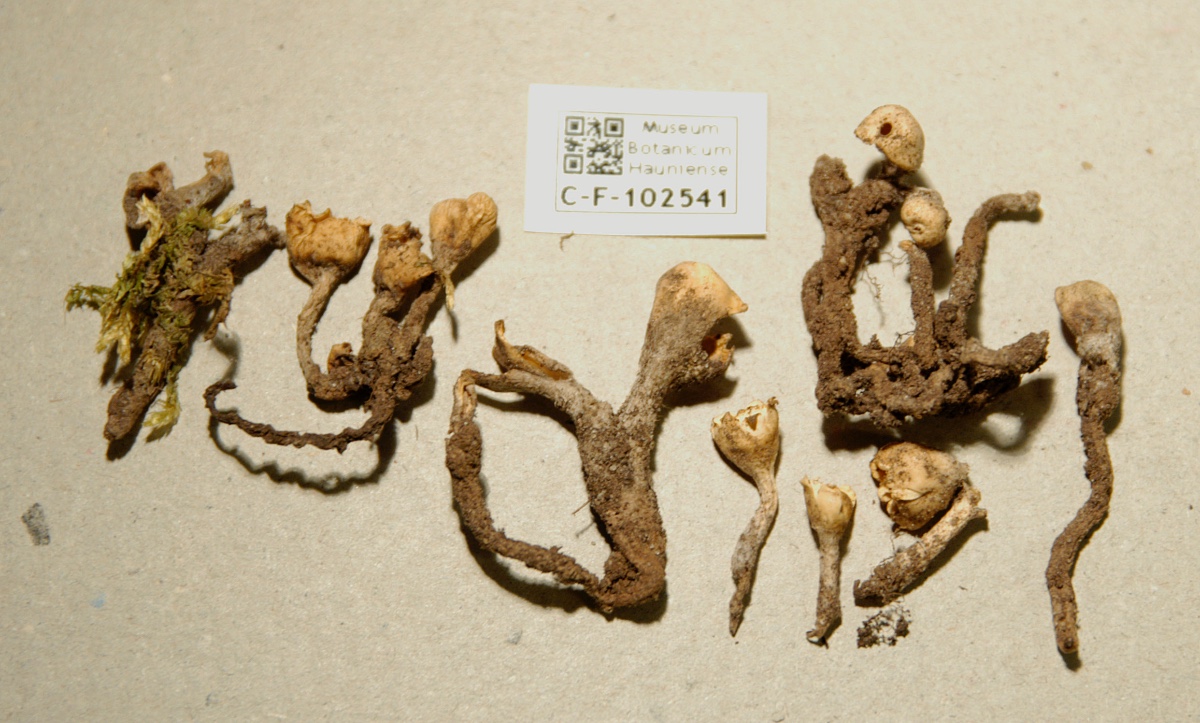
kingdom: Fungi
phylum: Ascomycota
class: Pezizomycetes
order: Pezizales
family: Sarcoscyphaceae
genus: Microstoma
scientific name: Microstoma protractum
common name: knippebæger
